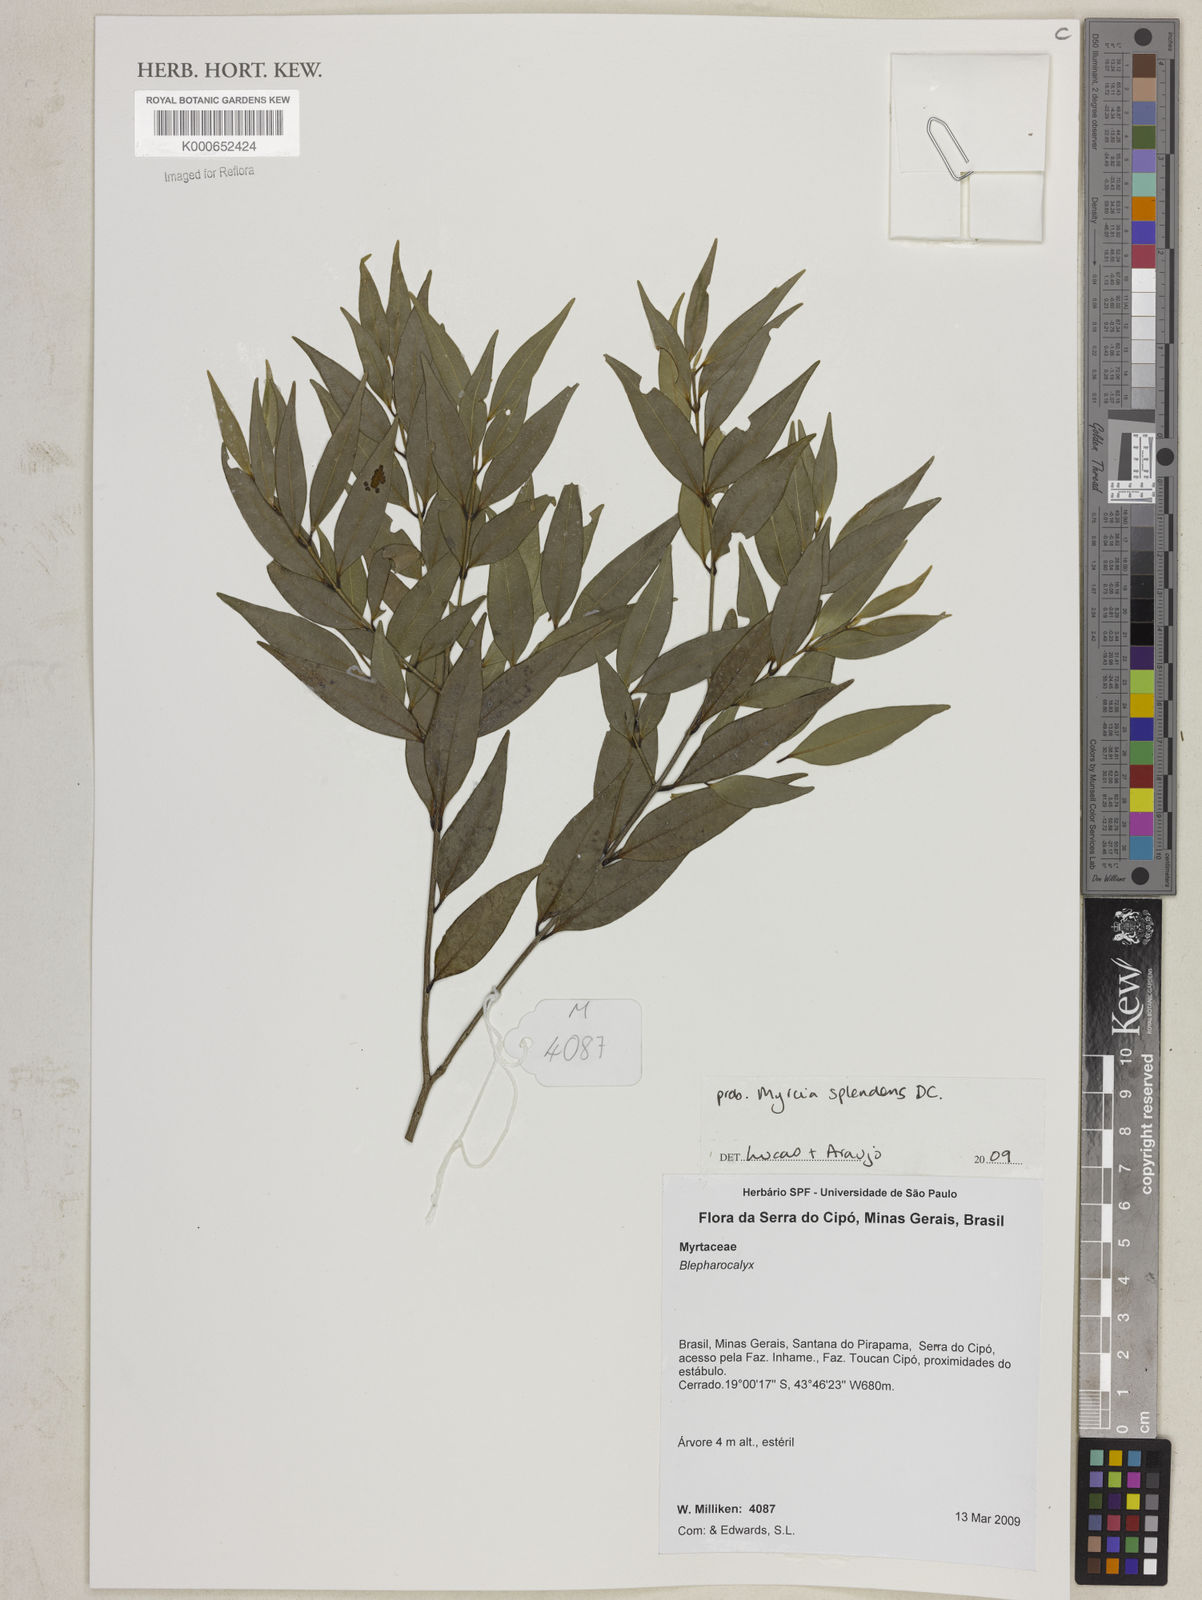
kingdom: Plantae
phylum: Tracheophyta
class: Magnoliopsida
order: Myrtales
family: Myrtaceae
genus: Myrcia
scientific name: Myrcia splendens
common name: Surinam cherry
